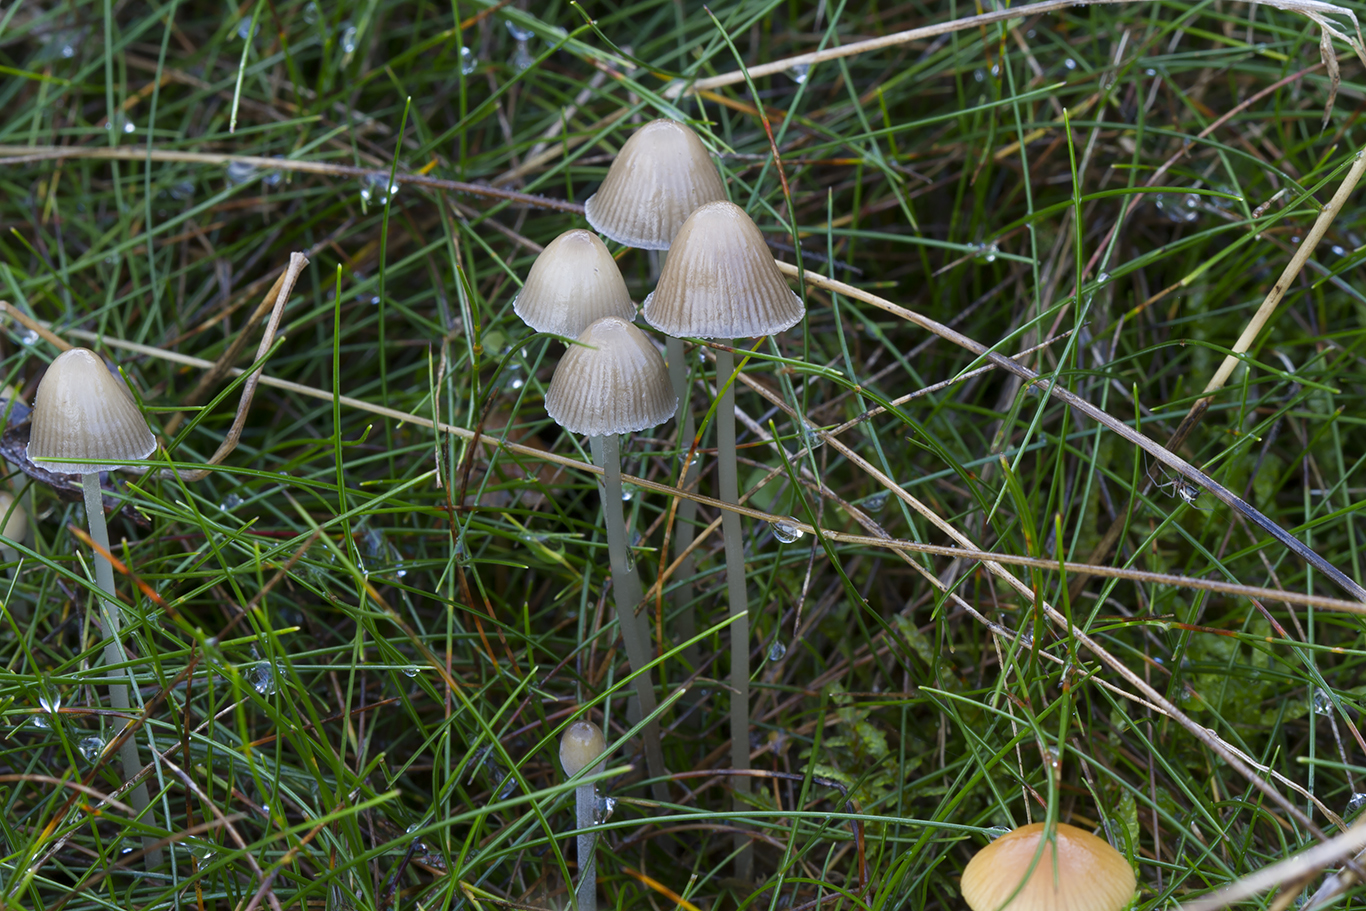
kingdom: Fungi
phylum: Basidiomycota
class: Agaricomycetes
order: Agaricales
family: Mycenaceae
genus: Mycena
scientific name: Mycena epipterygia
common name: Yellowleg bonnet
